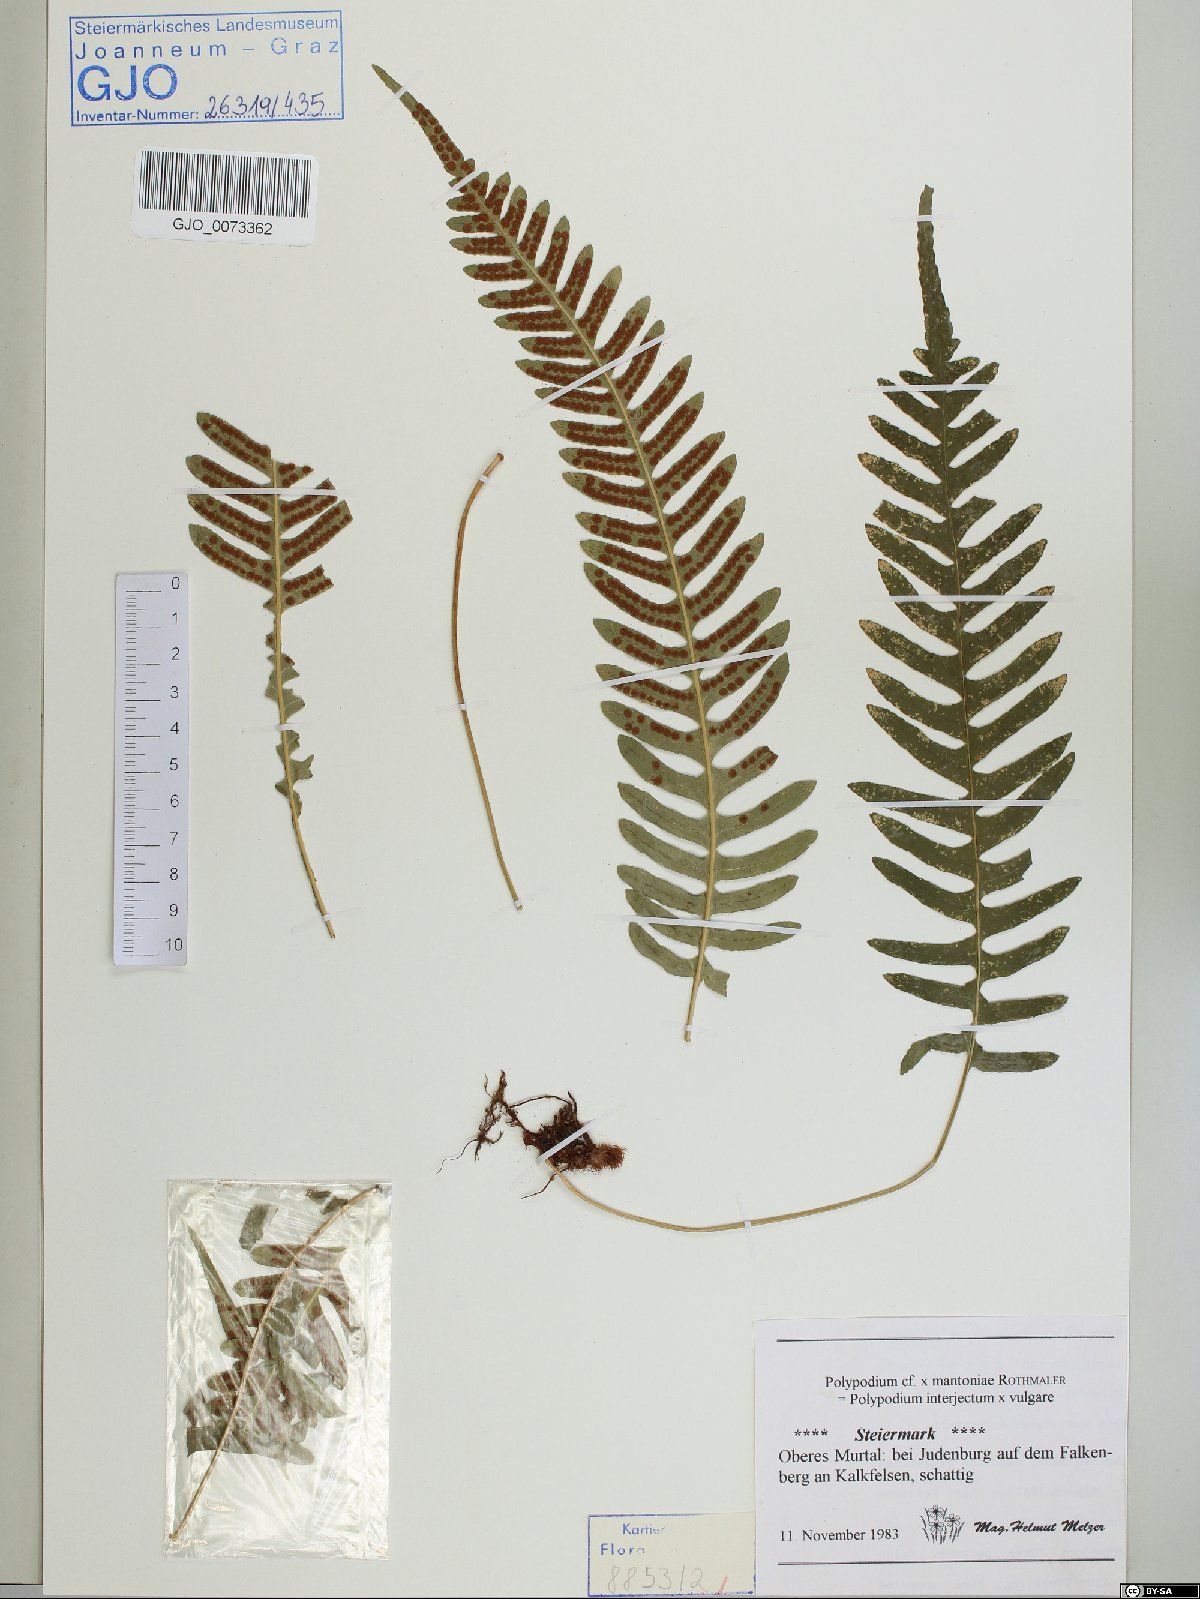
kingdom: Plantae
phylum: Tracheophyta
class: Polypodiopsida
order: Polypodiales
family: Polypodiaceae
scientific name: Polypodiaceae
